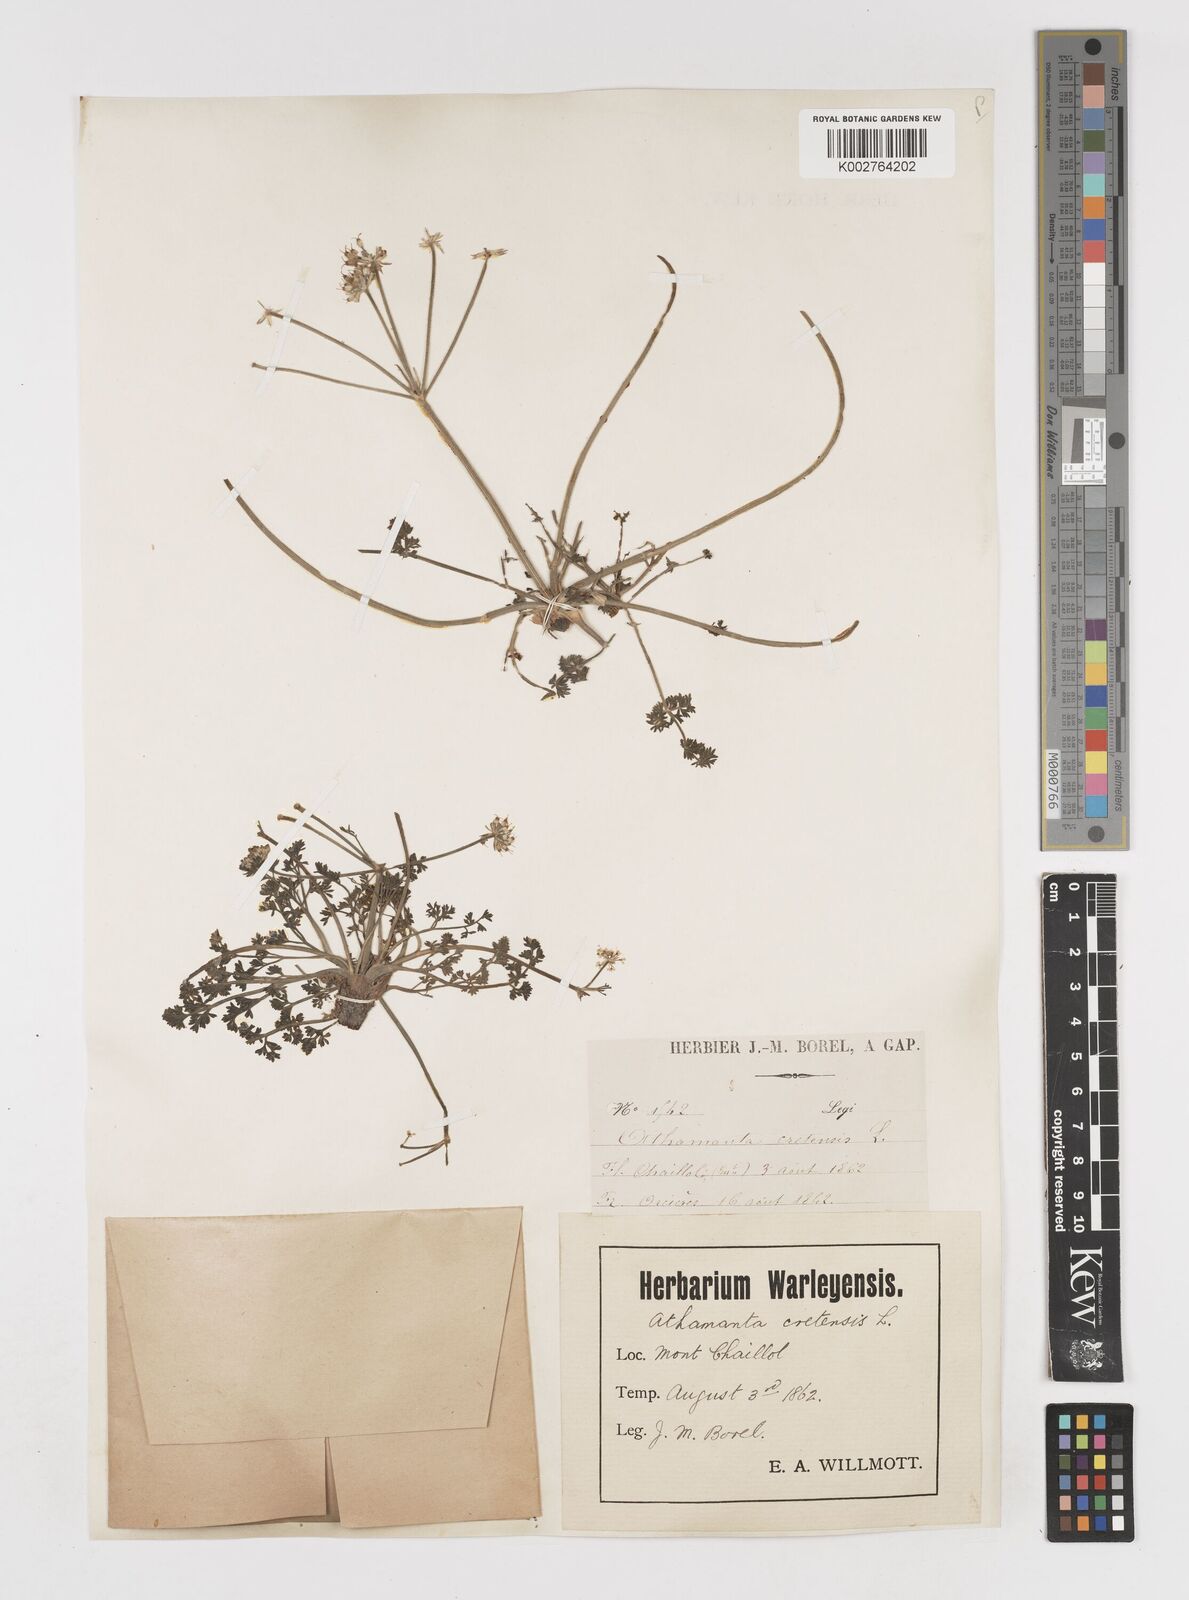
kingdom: Plantae
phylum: Tracheophyta
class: Magnoliopsida
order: Apiales
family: Apiaceae
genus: Athamanta
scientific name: Athamanta cretensis
